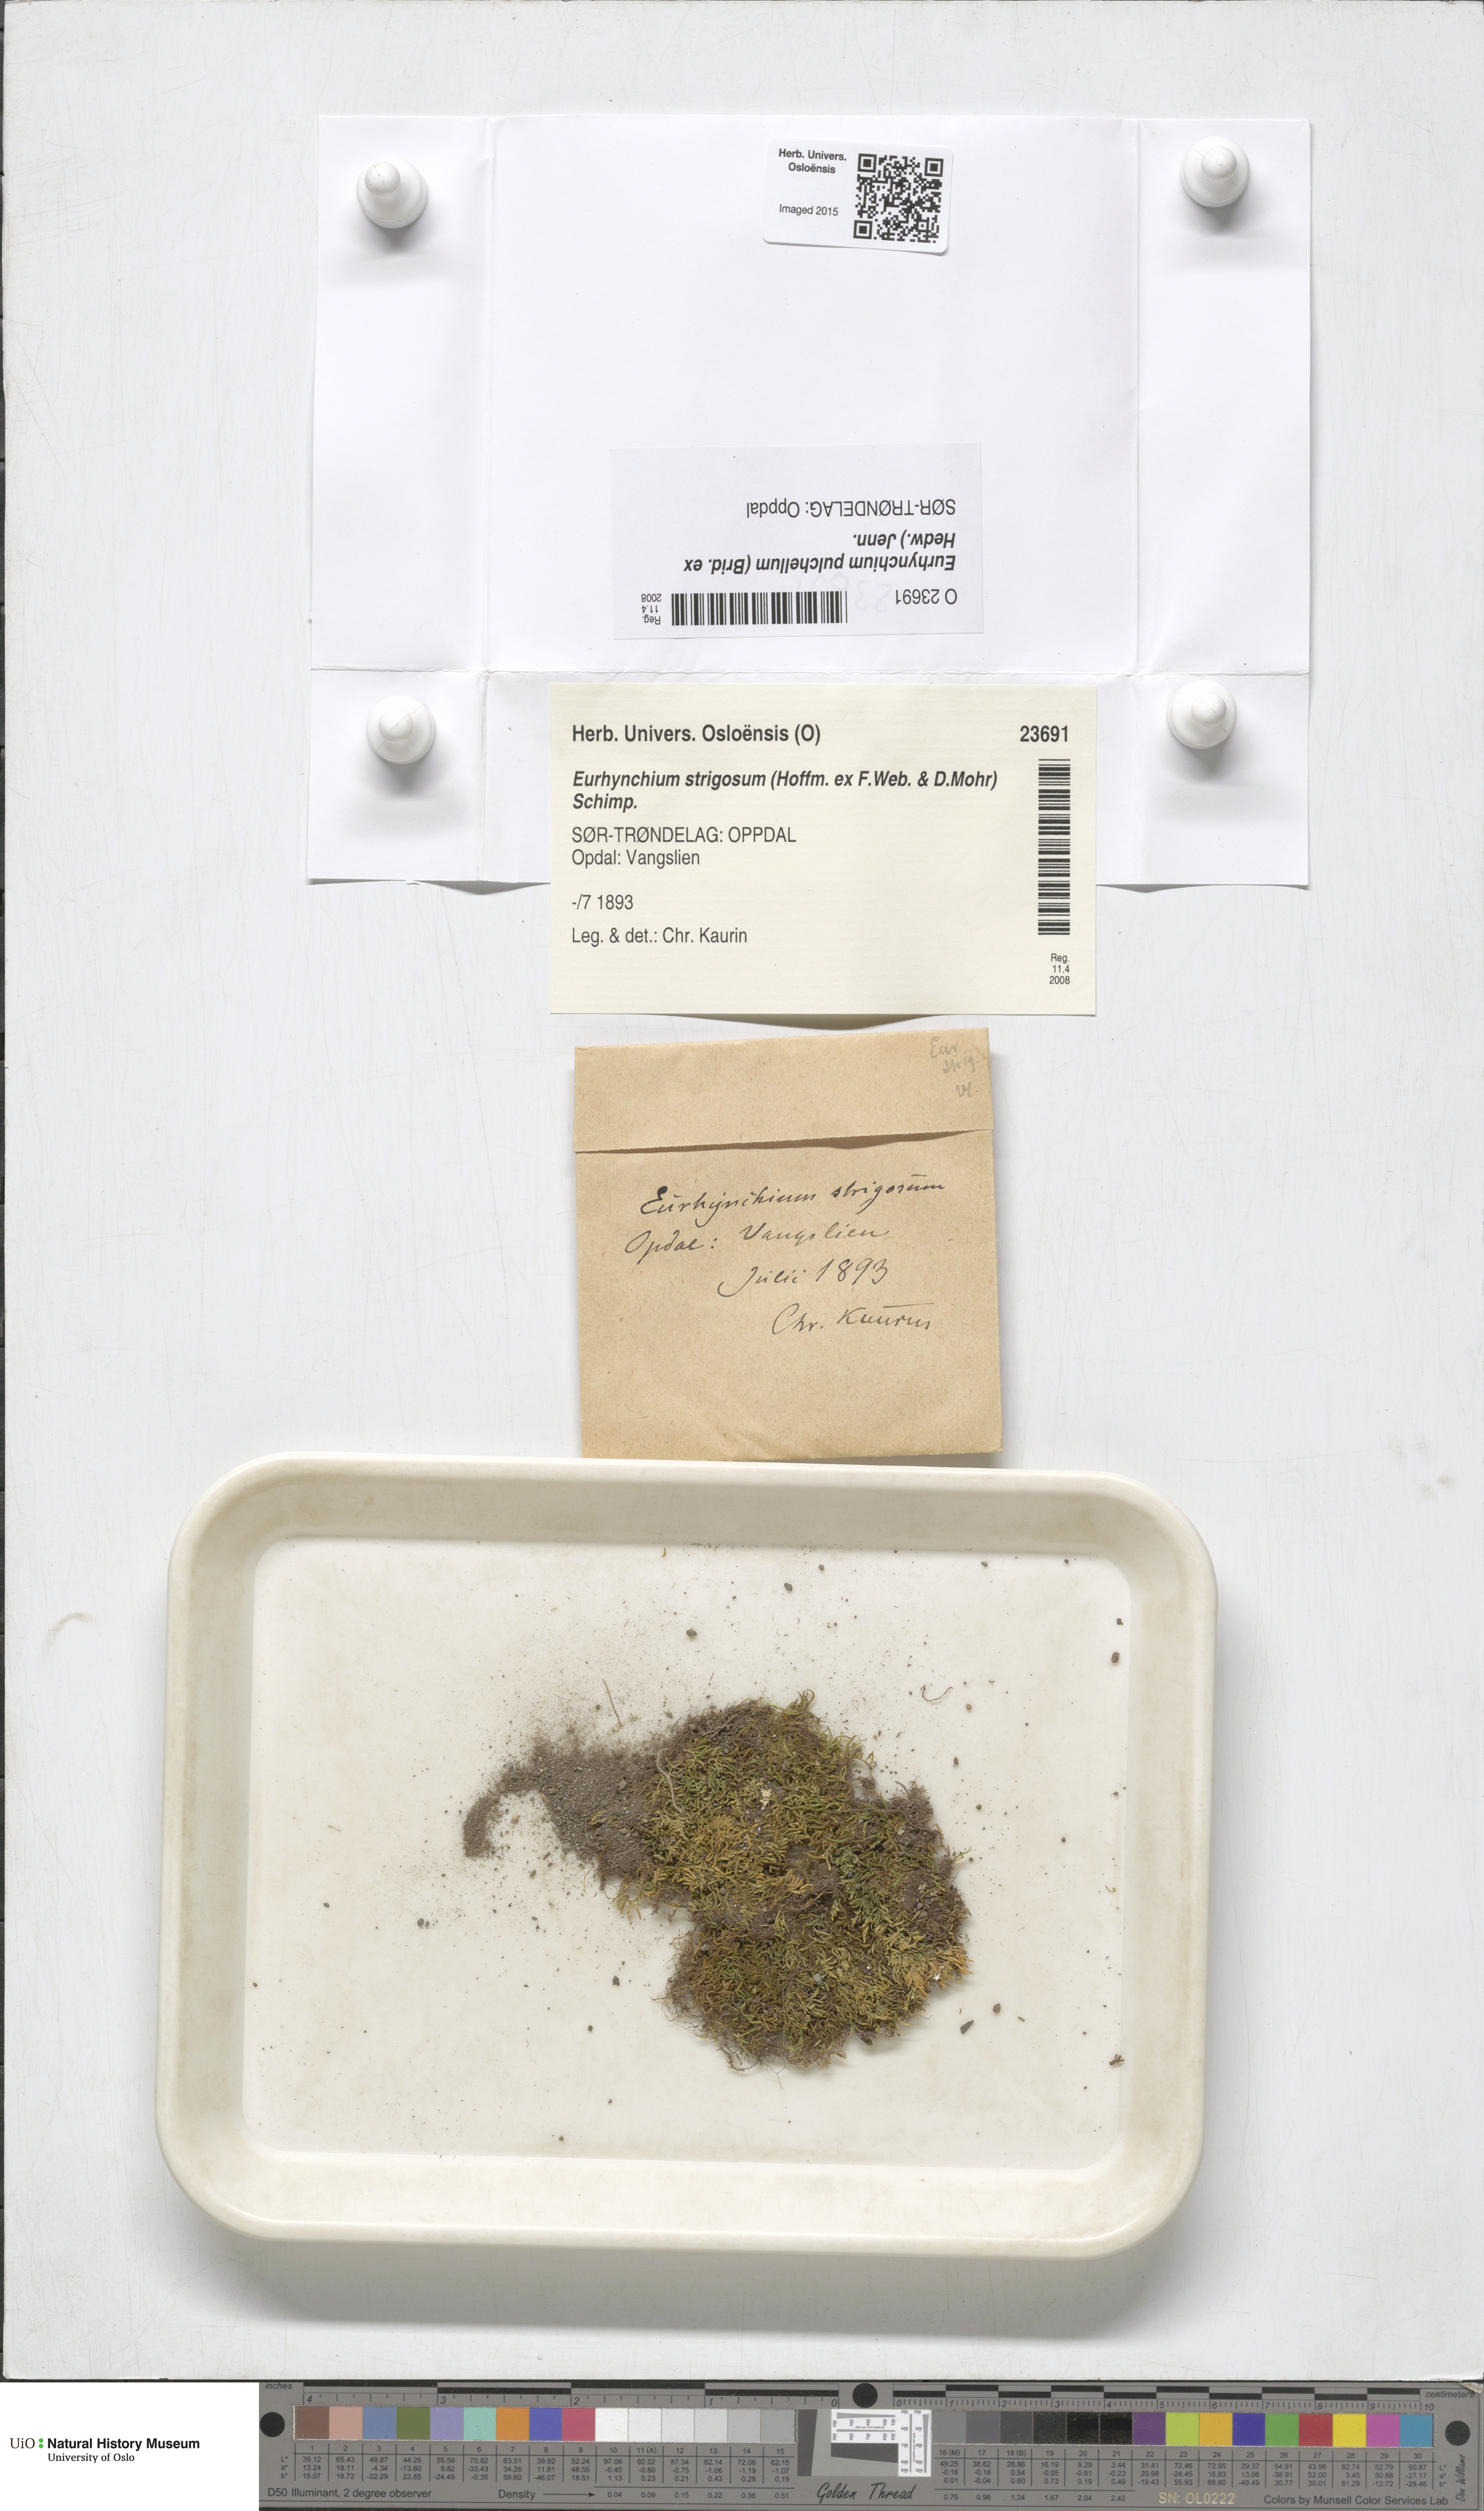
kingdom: Plantae
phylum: Bryophyta
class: Bryopsida
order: Hypnales
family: Brachytheciaceae
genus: Eurhynchiastrum
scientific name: Eurhynchiastrum pulchellum
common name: Elegant beaked moss
